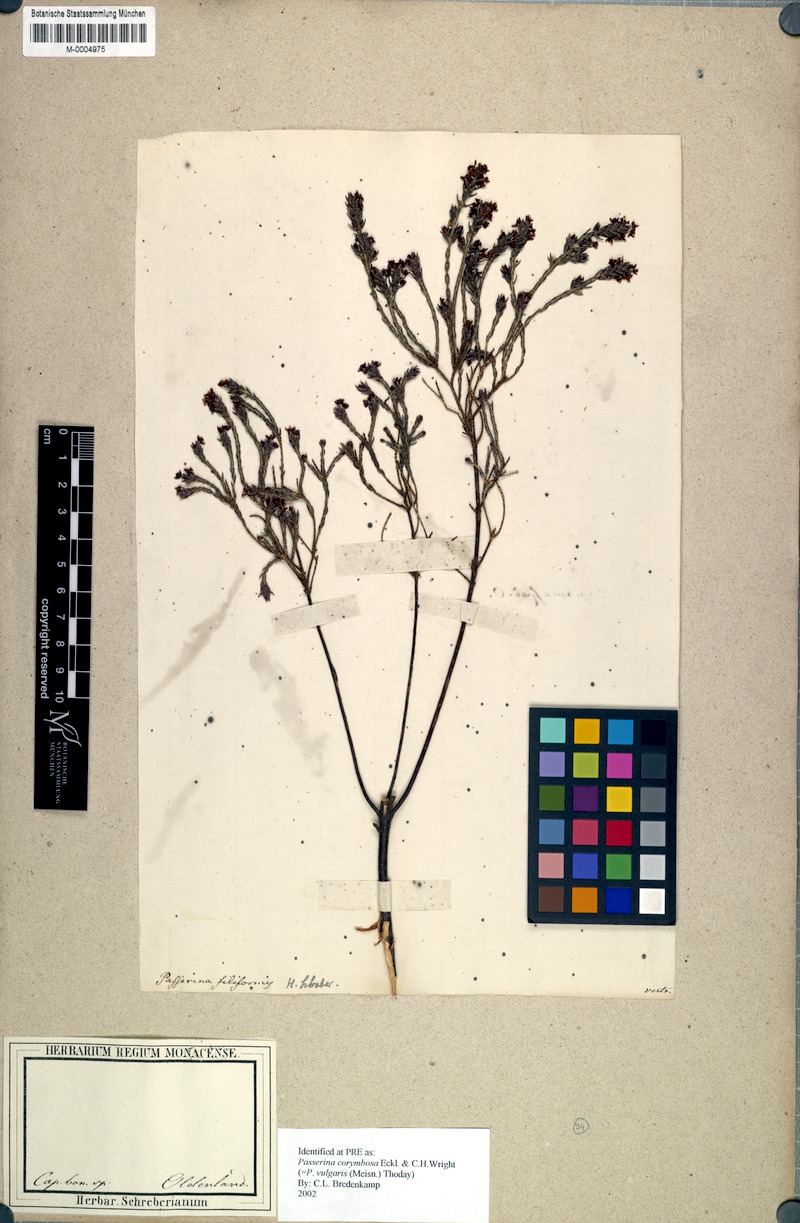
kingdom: Plantae
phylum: Tracheophyta
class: Magnoliopsida
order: Malvales
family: Thymelaeaceae
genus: Passerina
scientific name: Passerina corymbosa
